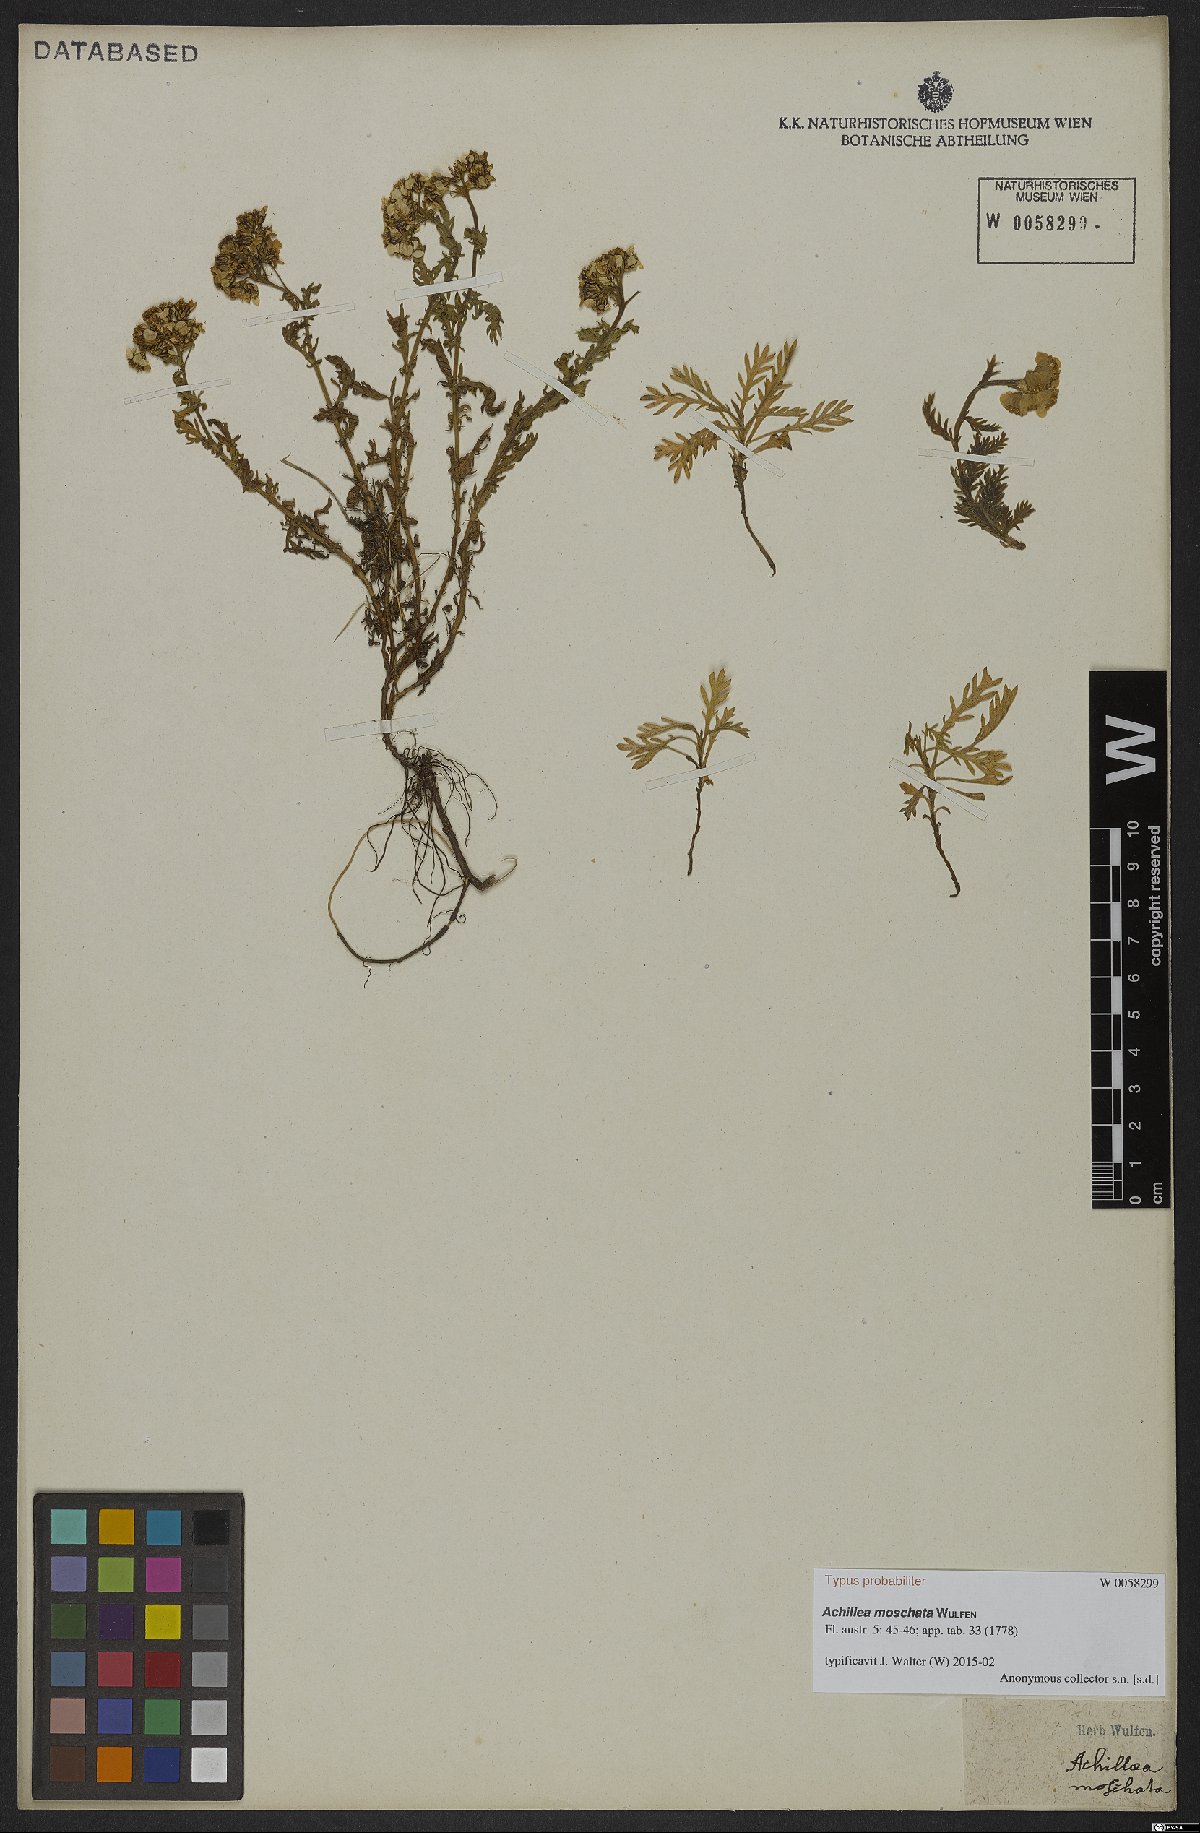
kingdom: Plantae
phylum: Tracheophyta
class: Magnoliopsida
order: Asterales
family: Asteraceae
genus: Achillea
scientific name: Achillea erba-rotta
